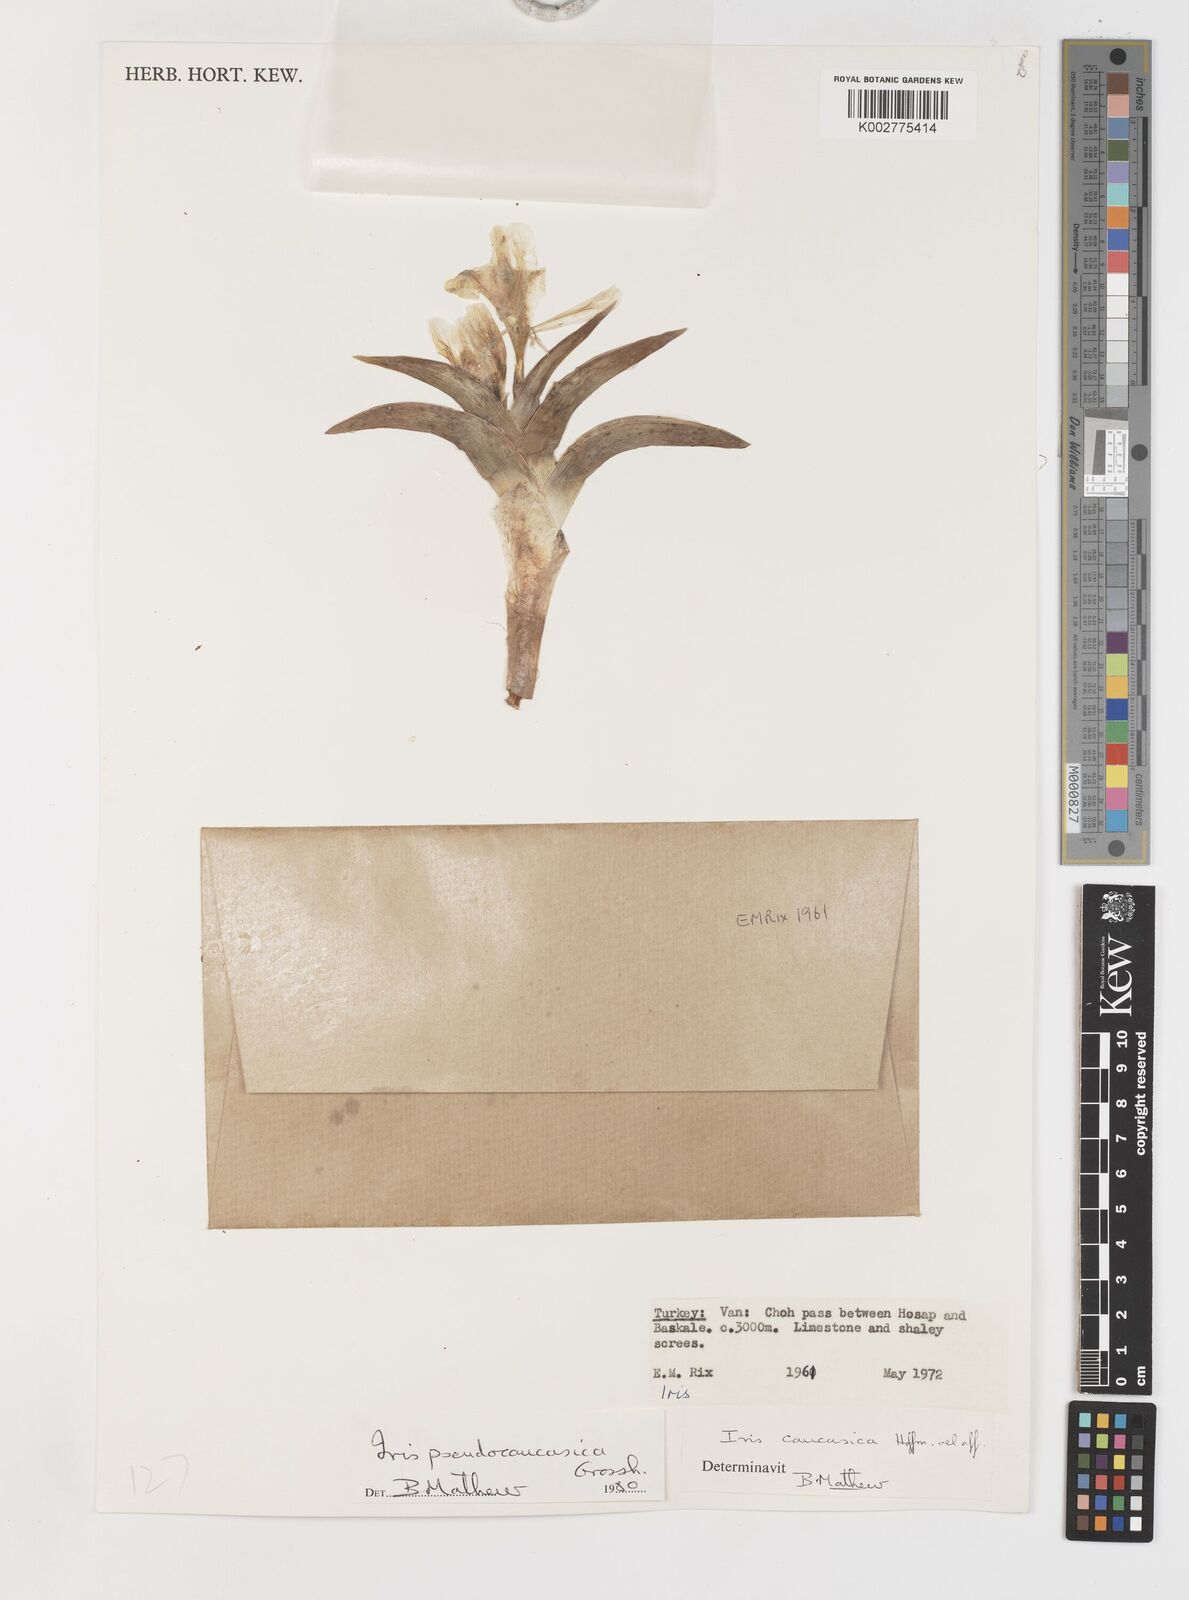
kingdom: Plantae
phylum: Tracheophyta
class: Liliopsida
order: Asparagales
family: Iridaceae
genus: Iris
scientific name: Iris pseudocaucasica
